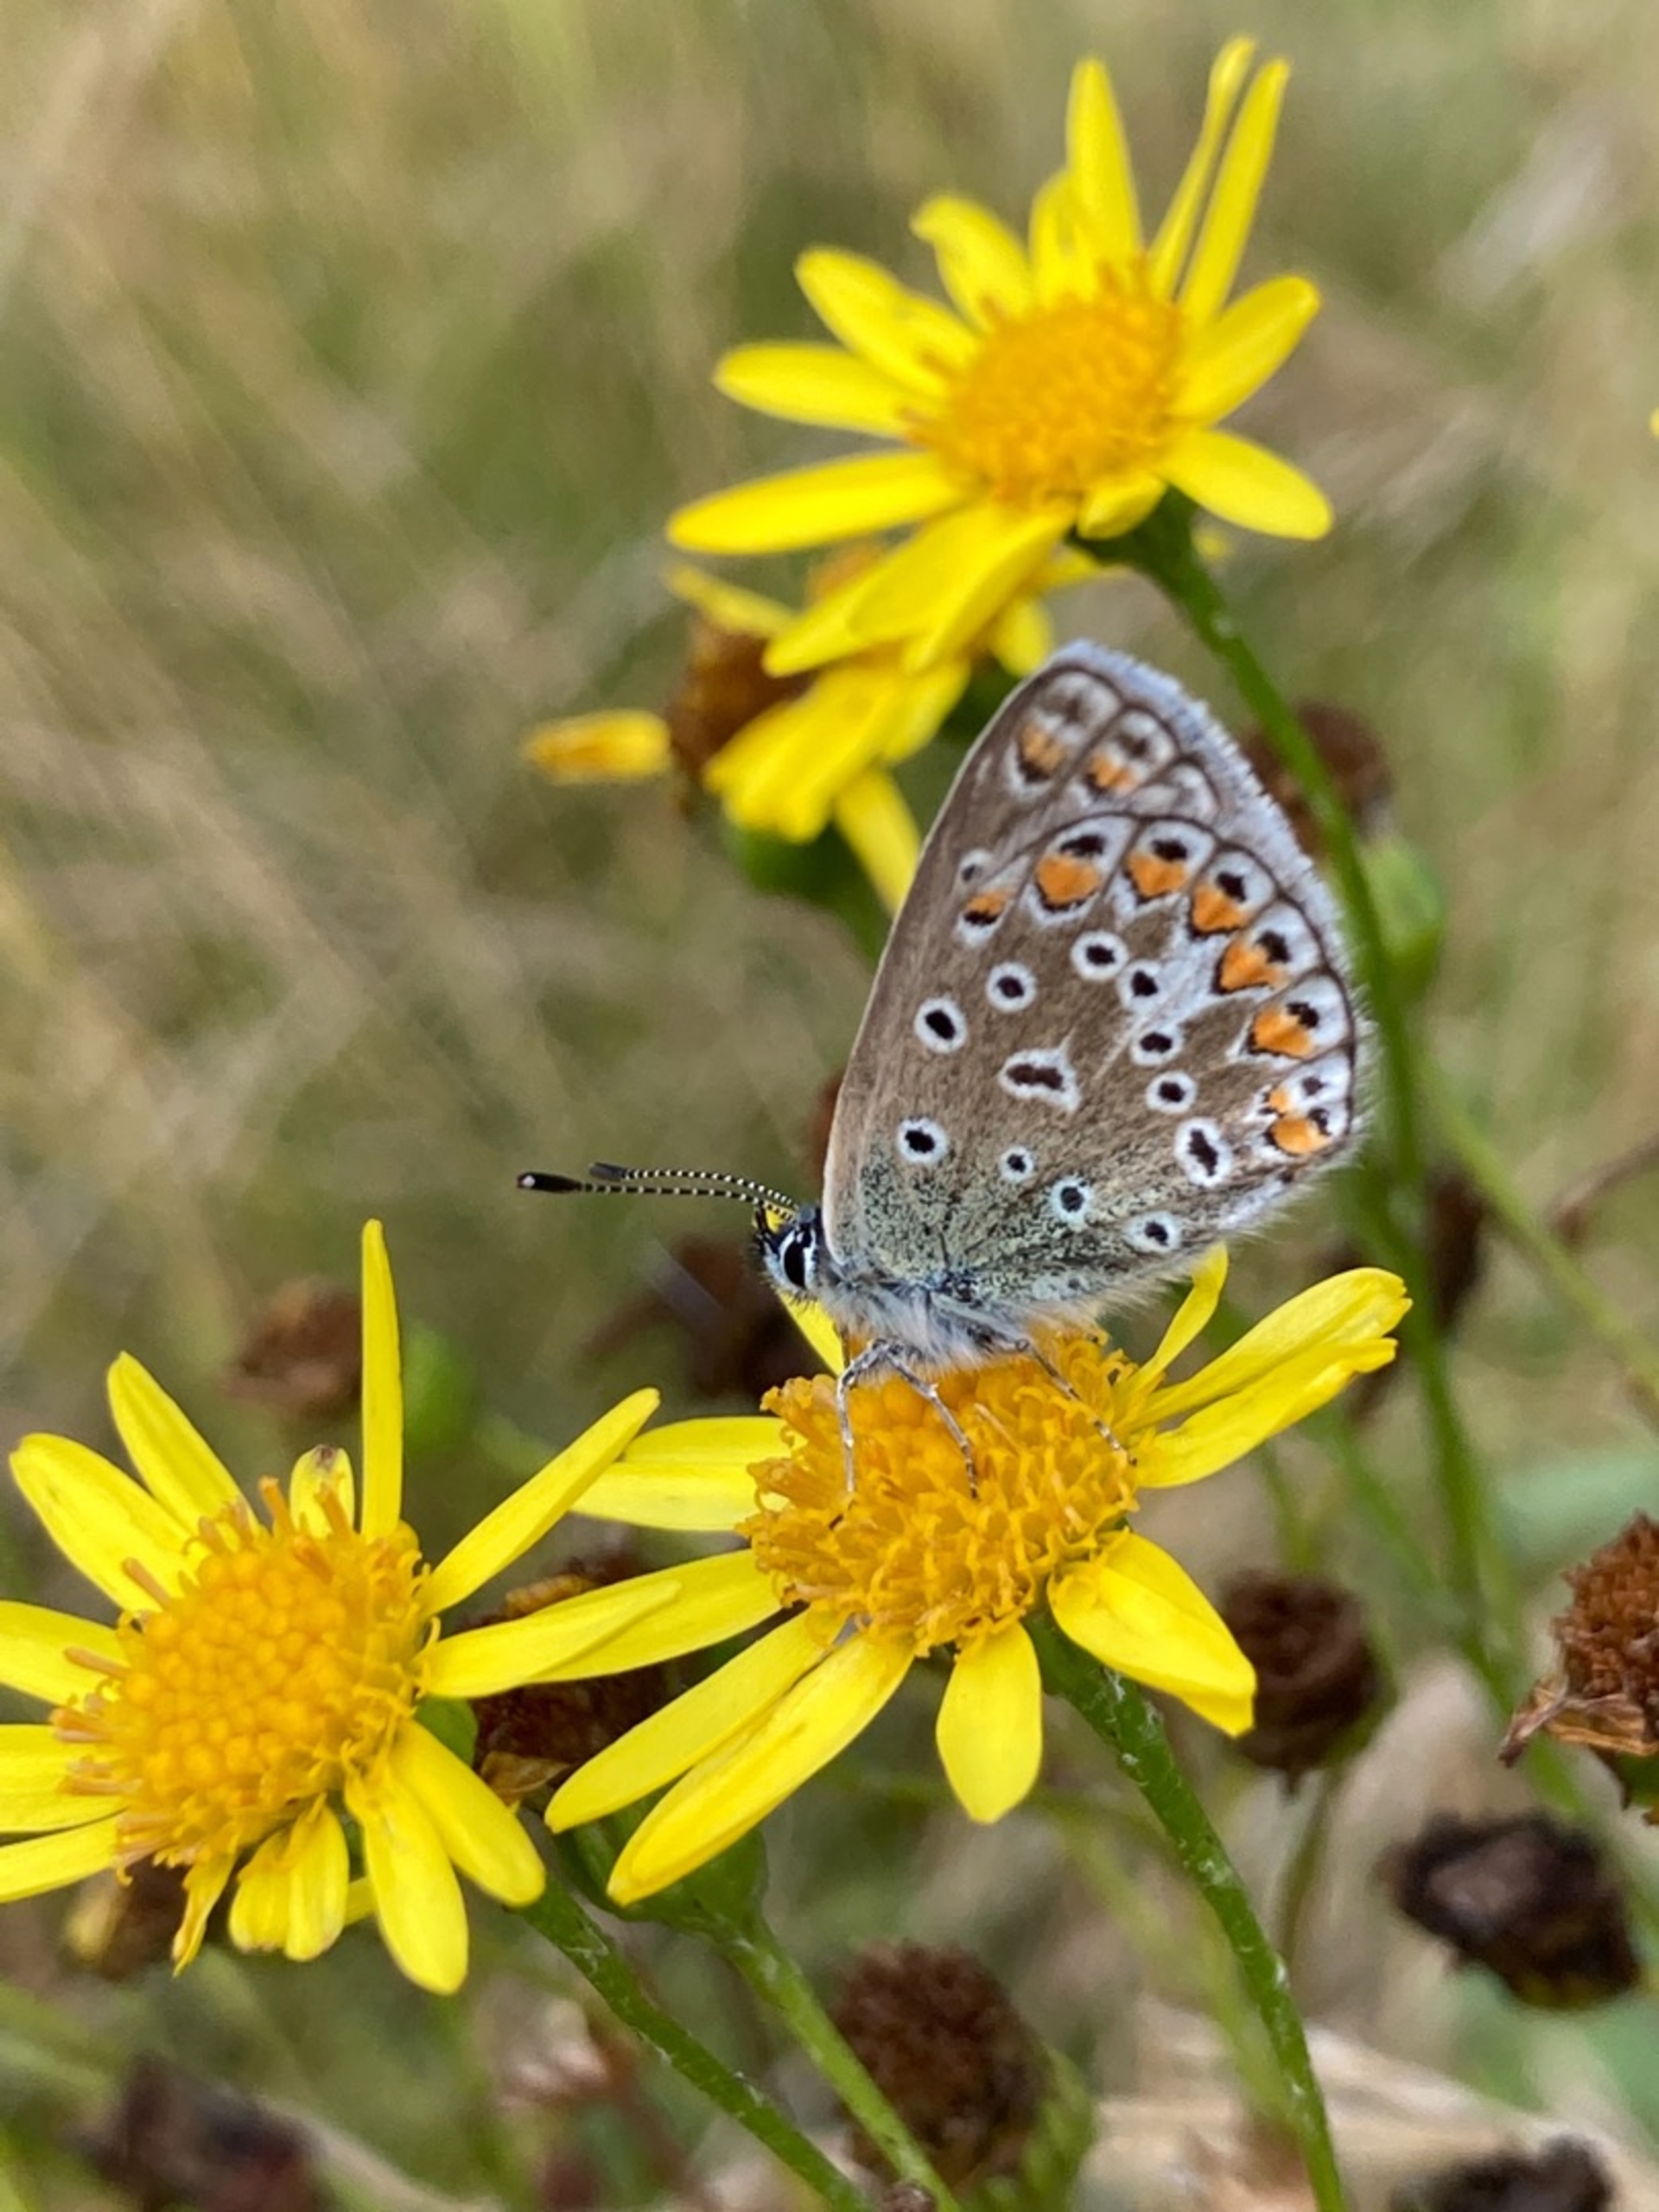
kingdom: Animalia
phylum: Arthropoda
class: Insecta
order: Lepidoptera
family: Lycaenidae
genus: Polyommatus
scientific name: Polyommatus icarus
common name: Almindelig blåfugl
